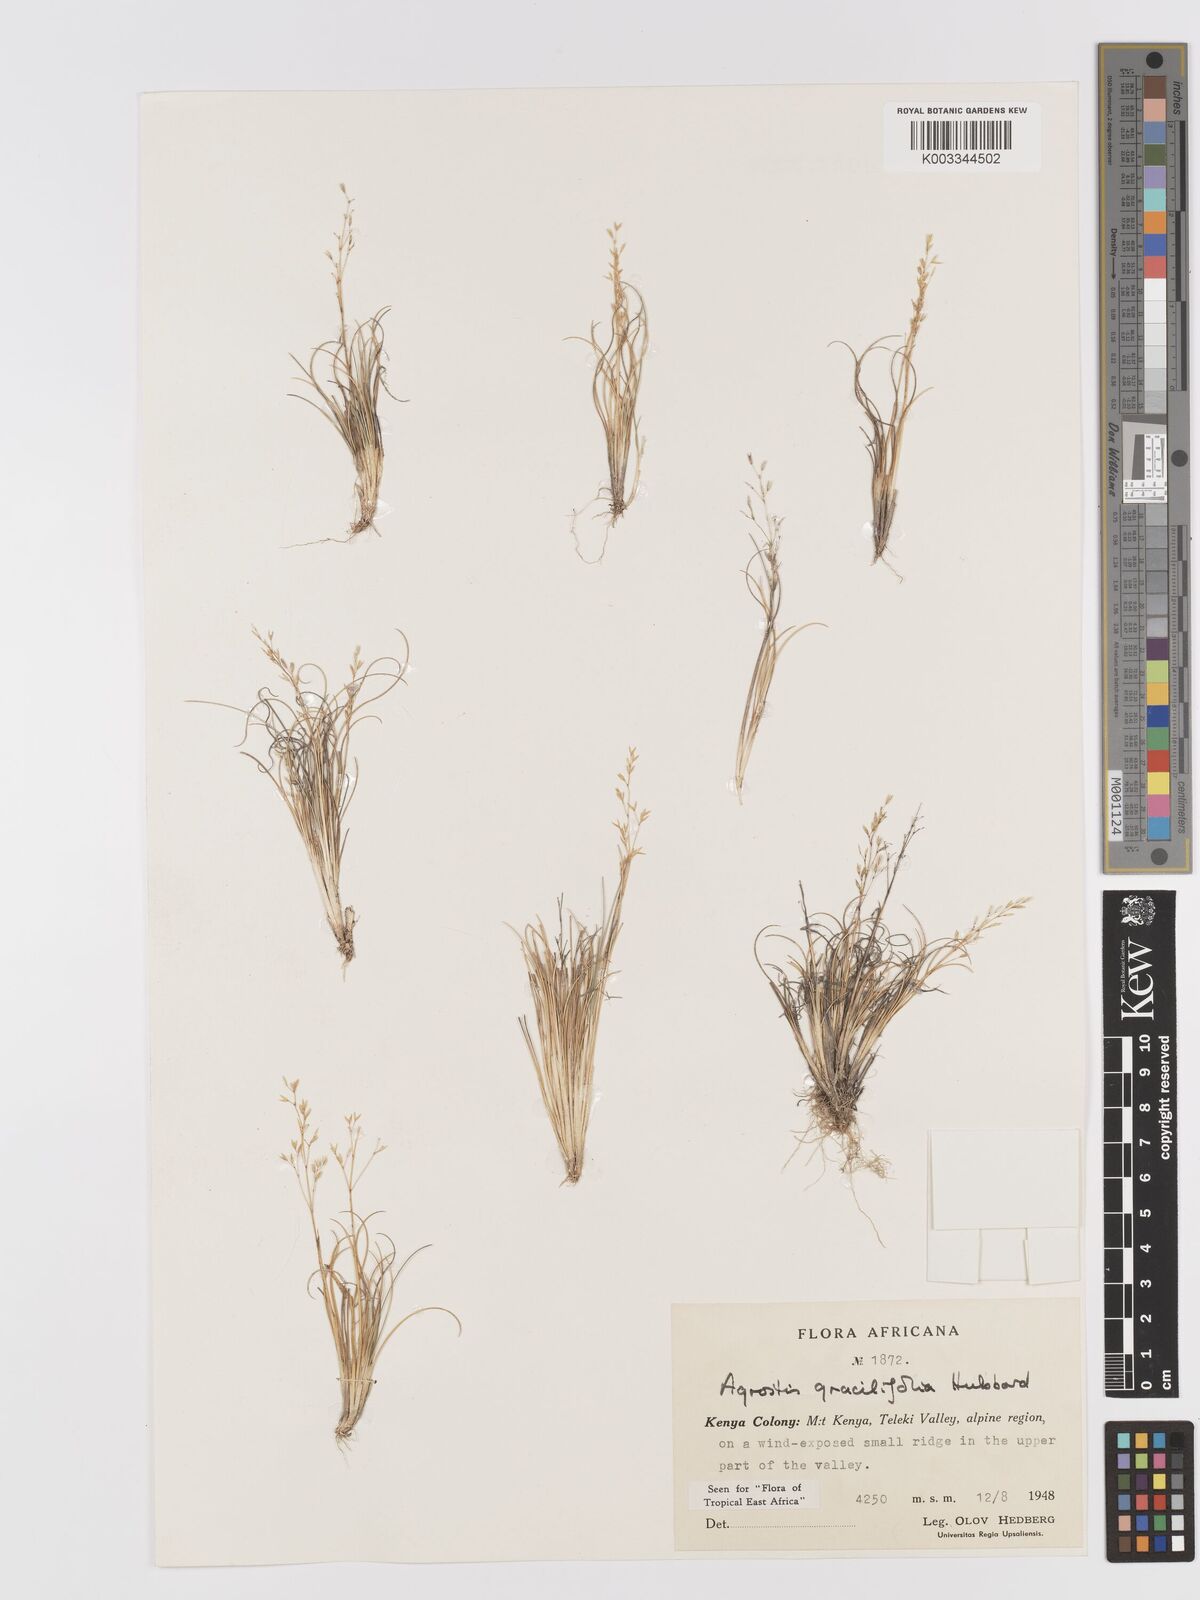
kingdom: Plantae
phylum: Tracheophyta
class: Liliopsida
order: Poales
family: Poaceae
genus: Agrostis
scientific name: Agrostis gracilifolia
